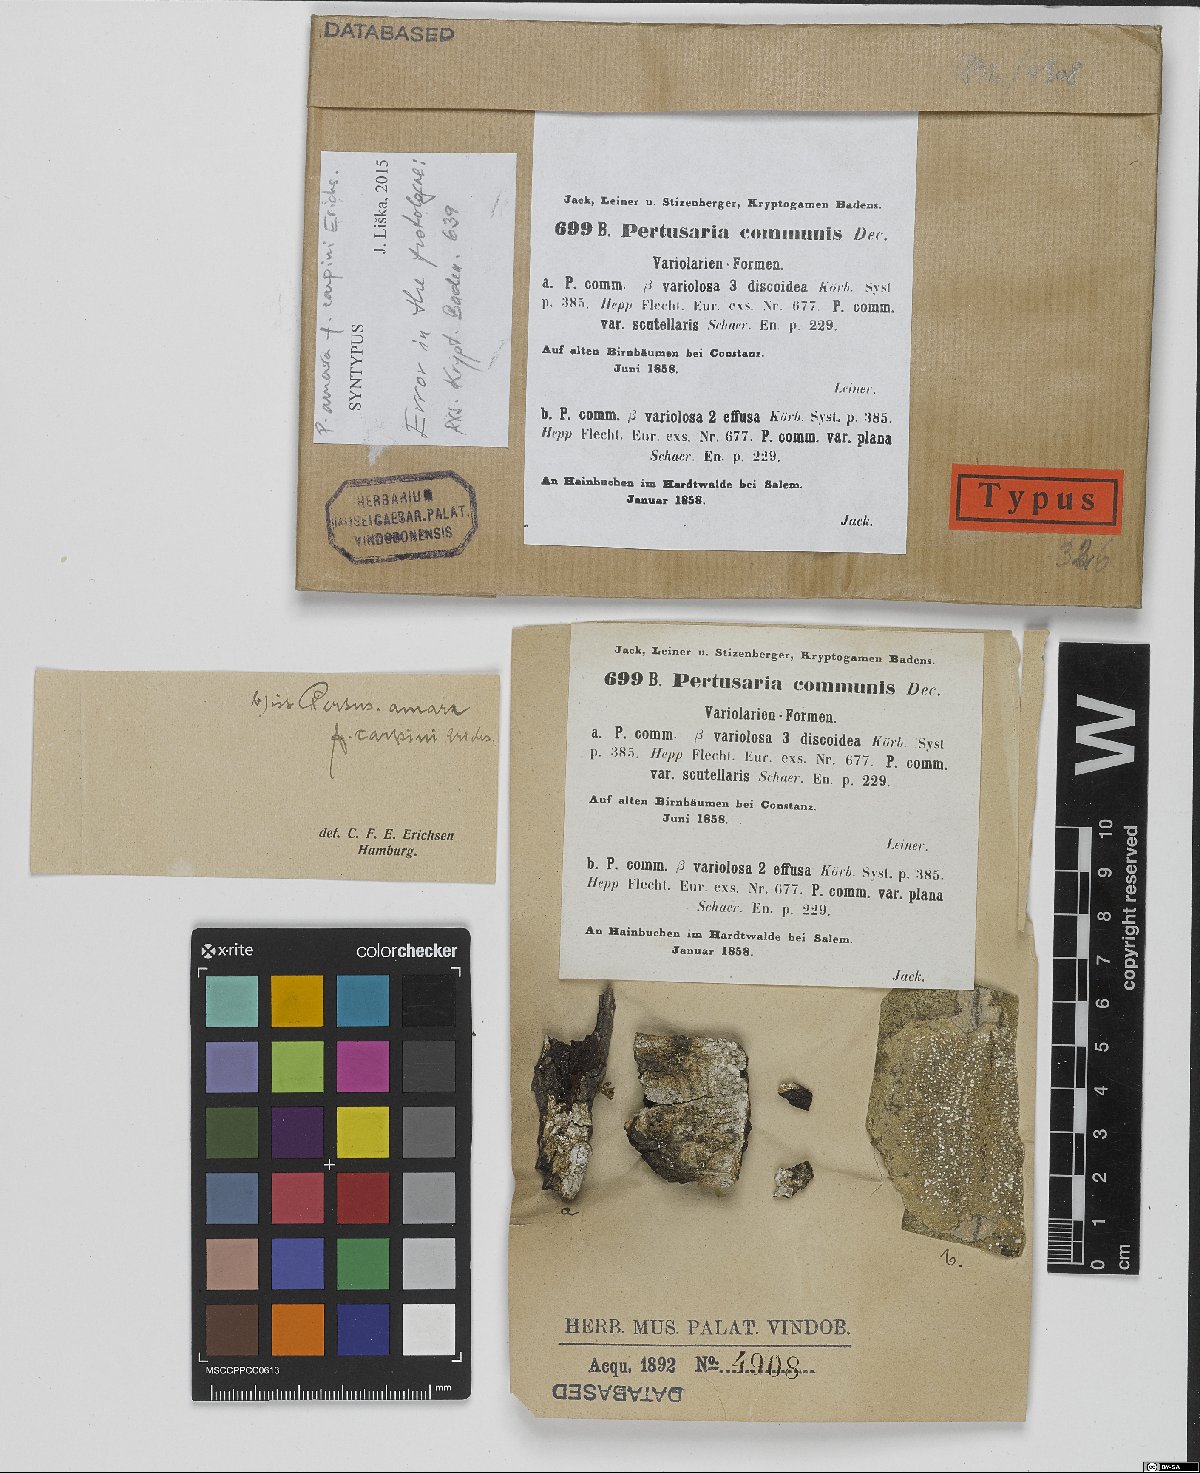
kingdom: Fungi
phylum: Ascomycota
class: Lecanoromycetes
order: Pertusariales
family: Pertusariaceae
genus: Lepra
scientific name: Lepra amara
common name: Bitter wart lichen
